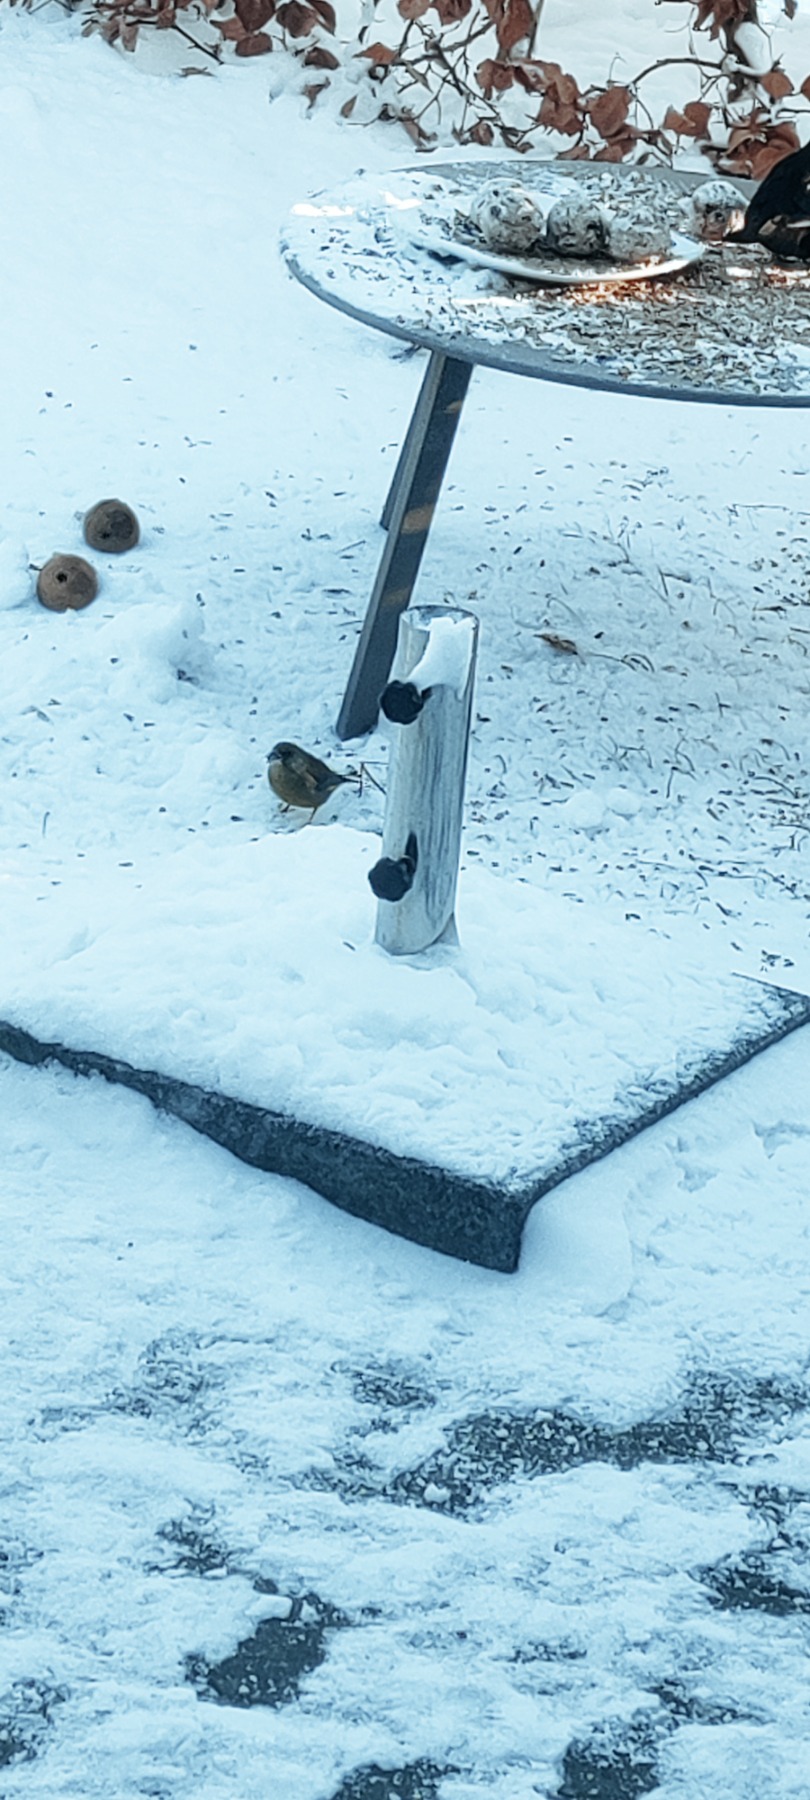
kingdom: Plantae
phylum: Tracheophyta
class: Liliopsida
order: Poales
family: Poaceae
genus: Chloris
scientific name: Chloris chloris
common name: Grønirisk
